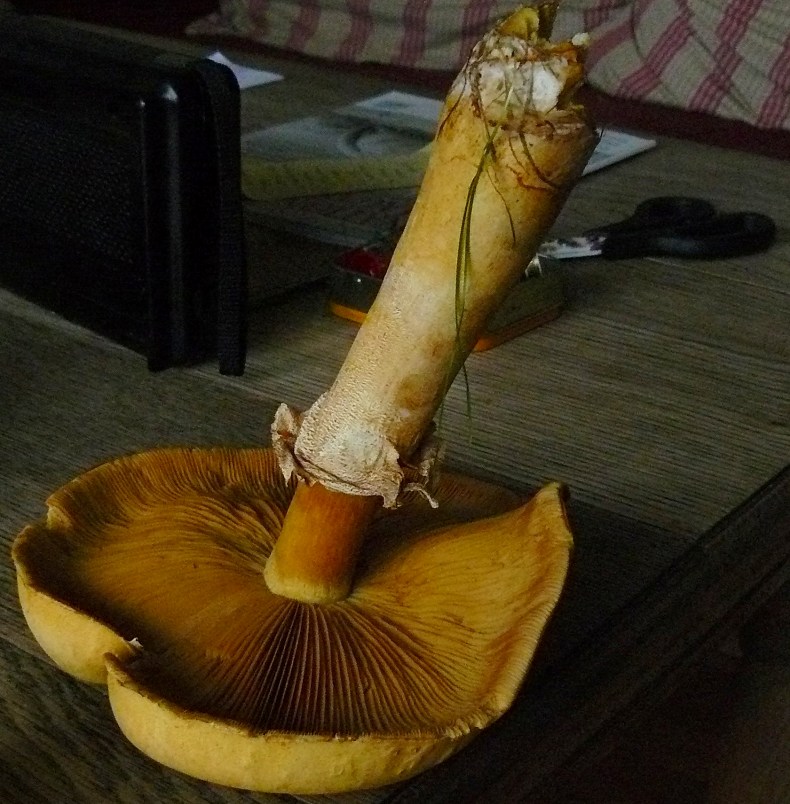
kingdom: Fungi
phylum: Basidiomycota
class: Agaricomycetes
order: Agaricales
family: Tricholomataceae
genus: Phaeolepiota
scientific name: Phaeolepiota aurea
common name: gyldenhat
